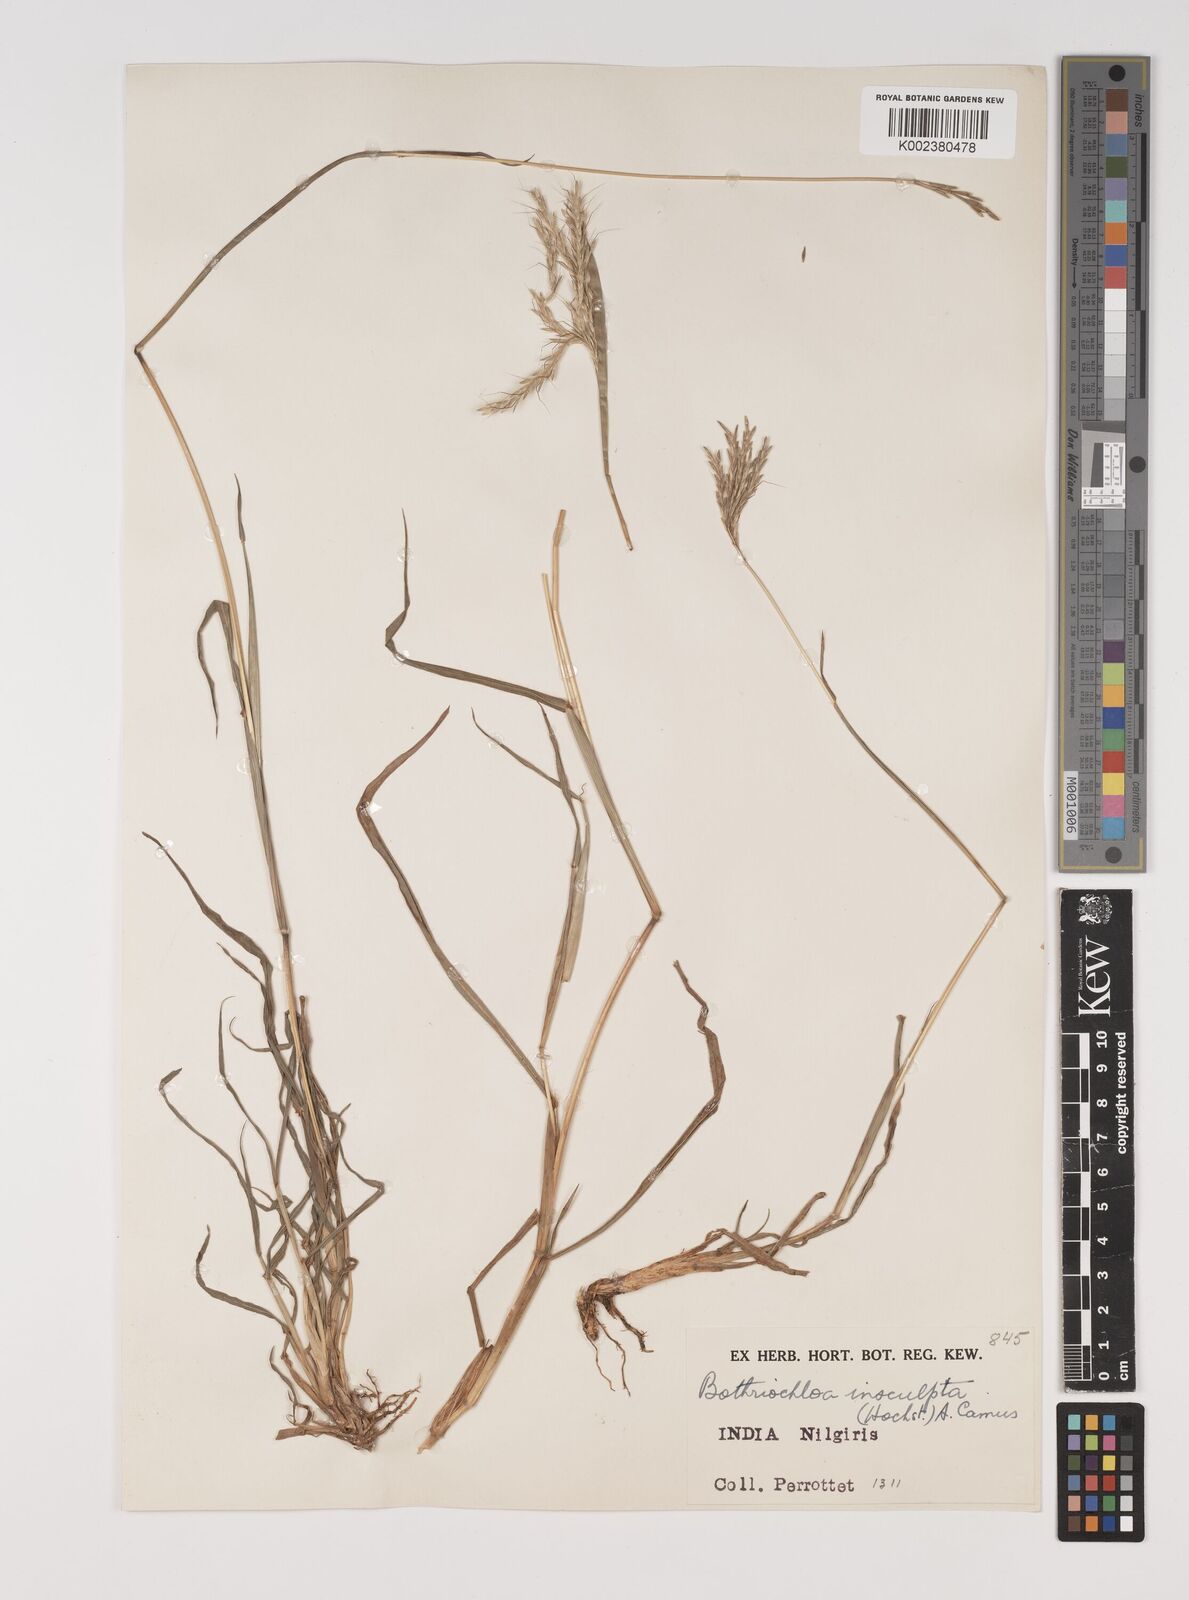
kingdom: Plantae
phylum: Tracheophyta
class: Liliopsida
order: Poales
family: Poaceae
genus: Bothriochloa
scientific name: Bothriochloa insculpta
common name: Creeping-bluegrass
